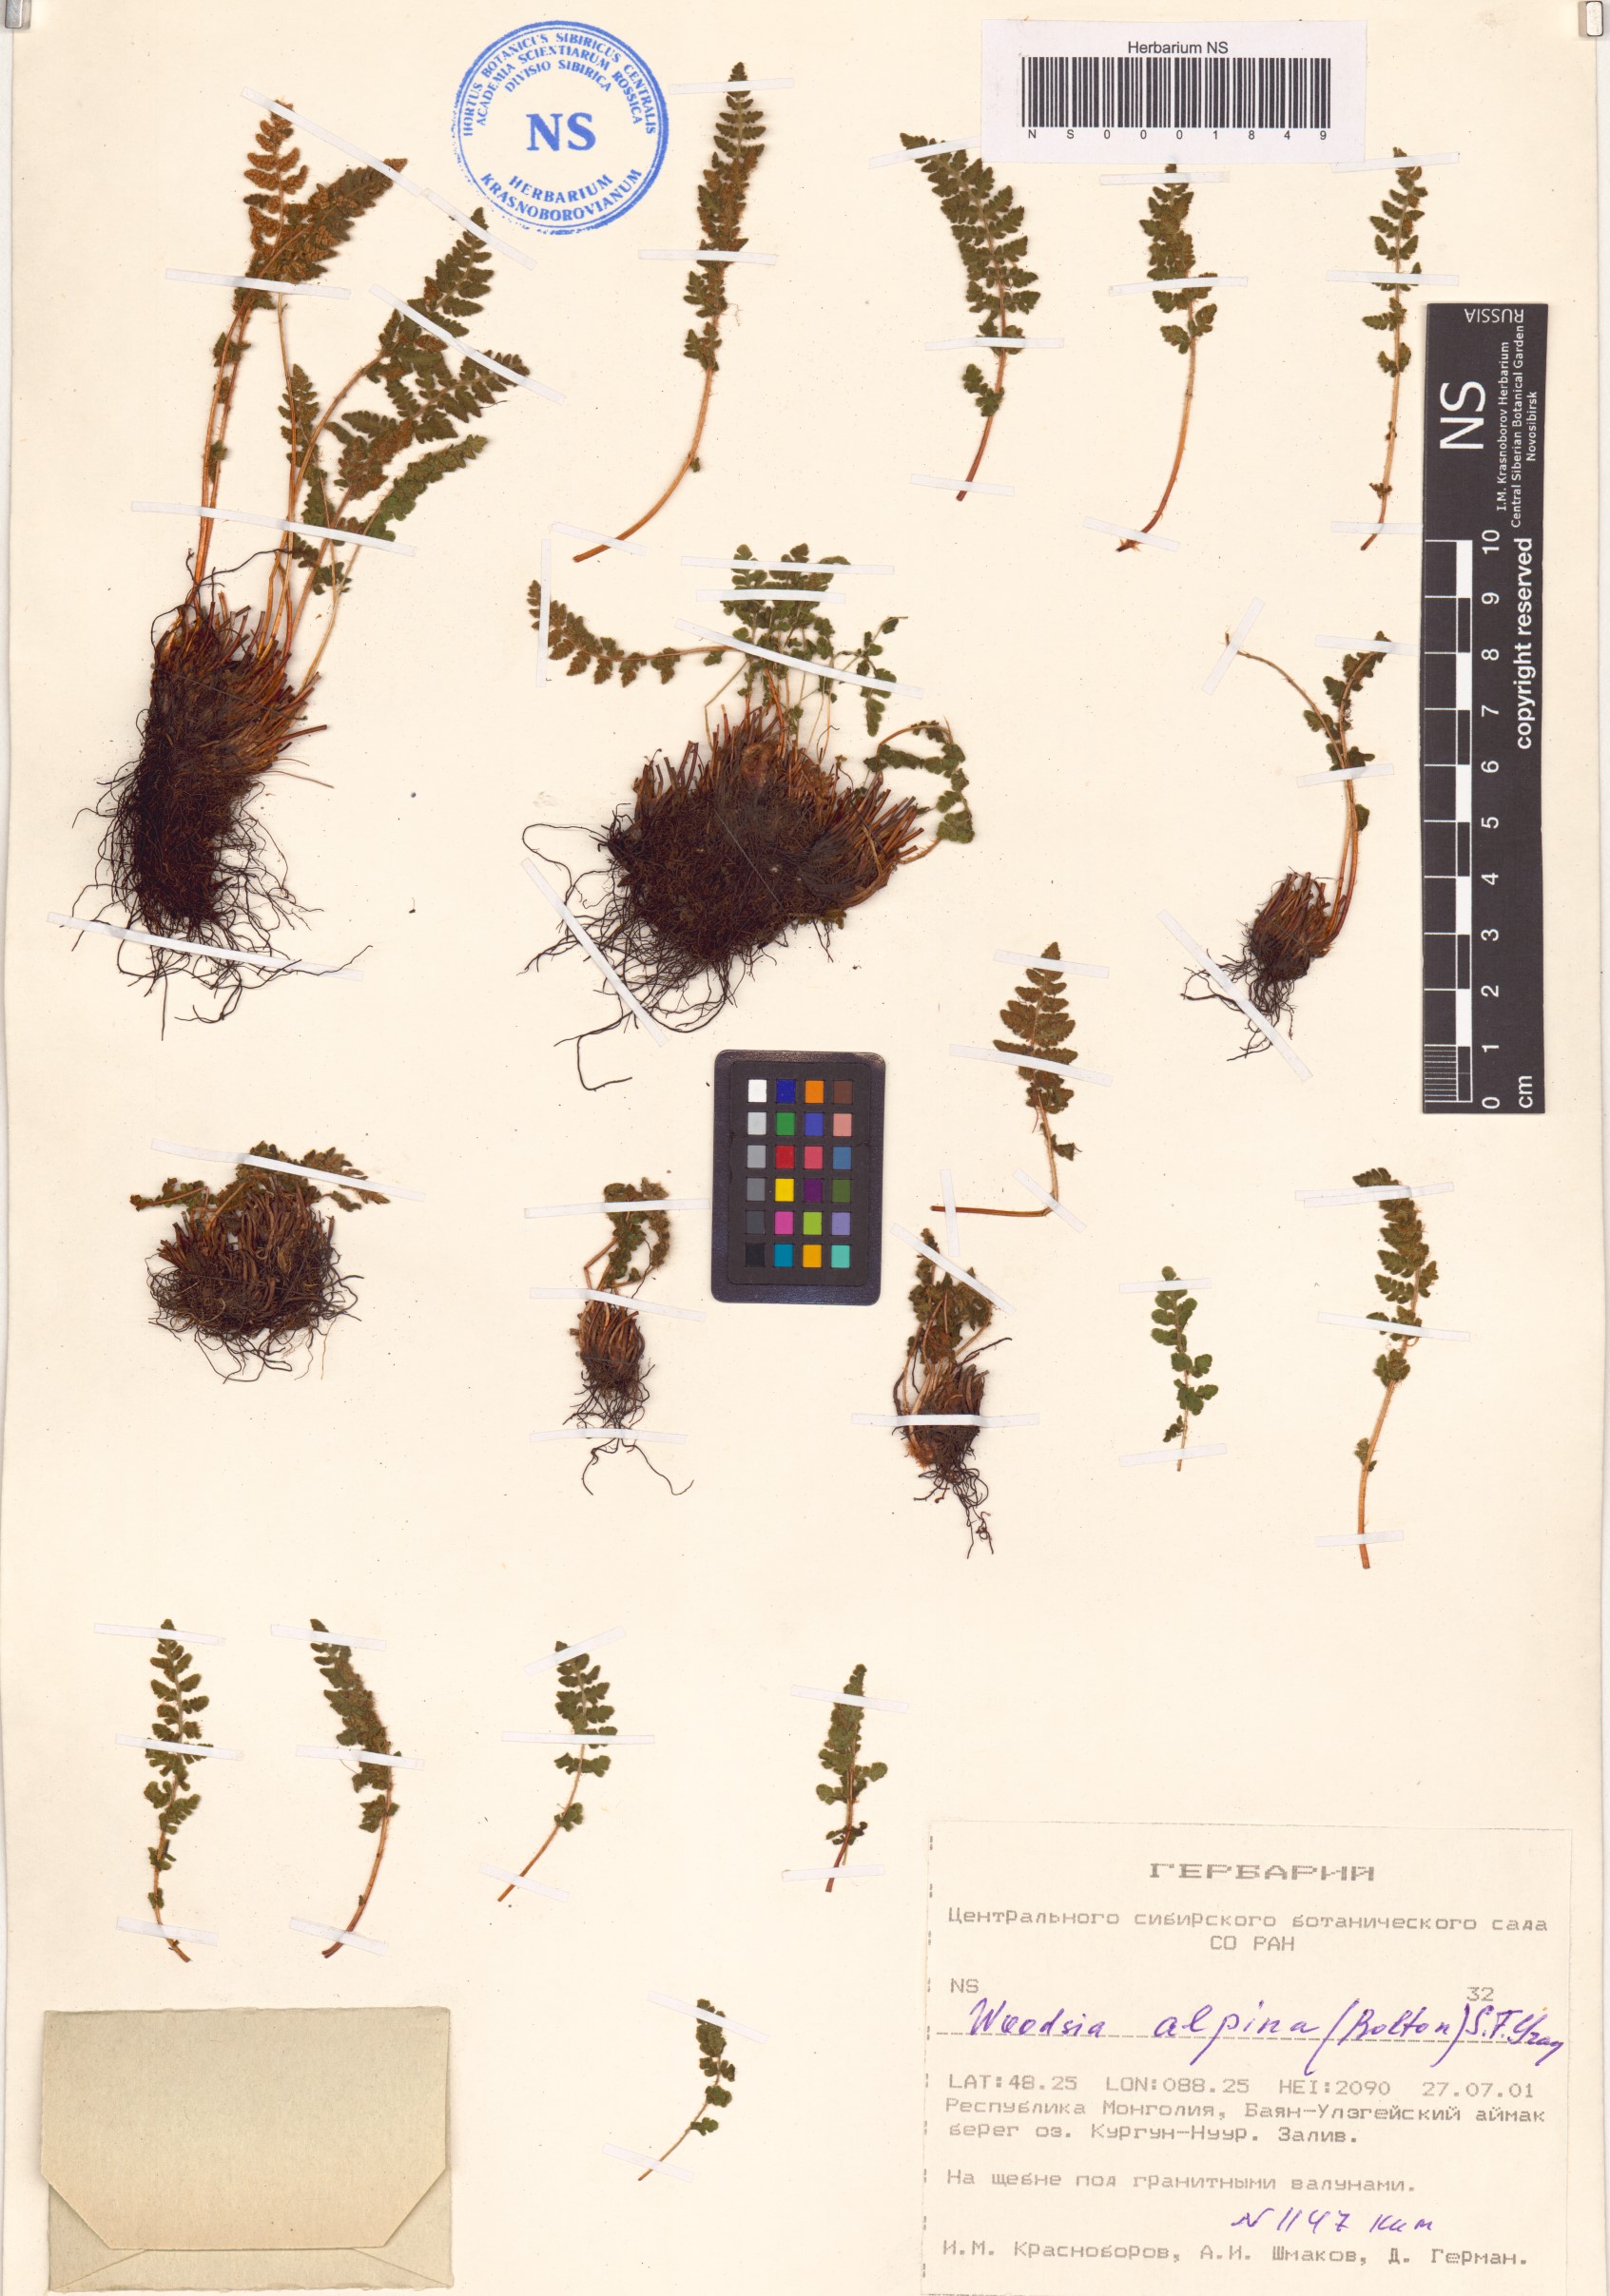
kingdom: Plantae
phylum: Tracheophyta
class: Polypodiopsida
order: Polypodiales
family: Woodsiaceae
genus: Woodsia
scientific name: Woodsia alpina
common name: Alpine woodsia
